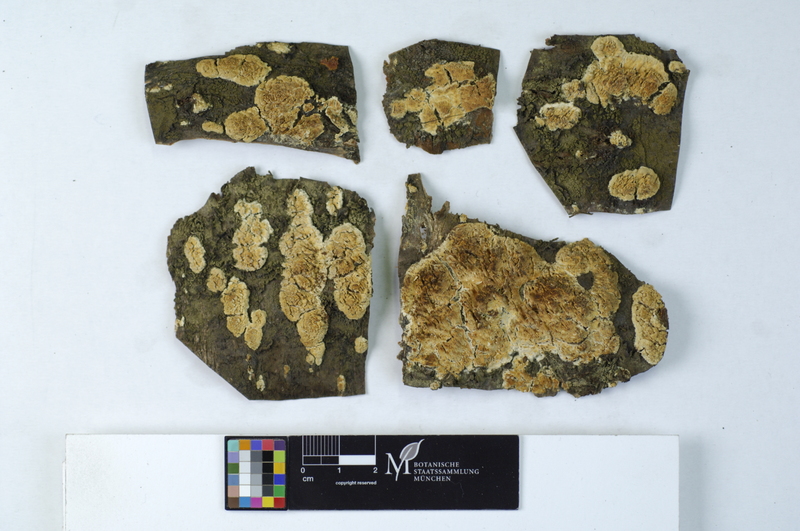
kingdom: Plantae
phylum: Tracheophyta
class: Magnoliopsida
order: Rosales
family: Rosaceae
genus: Prunus
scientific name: Prunus avium
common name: Sweet cherry
